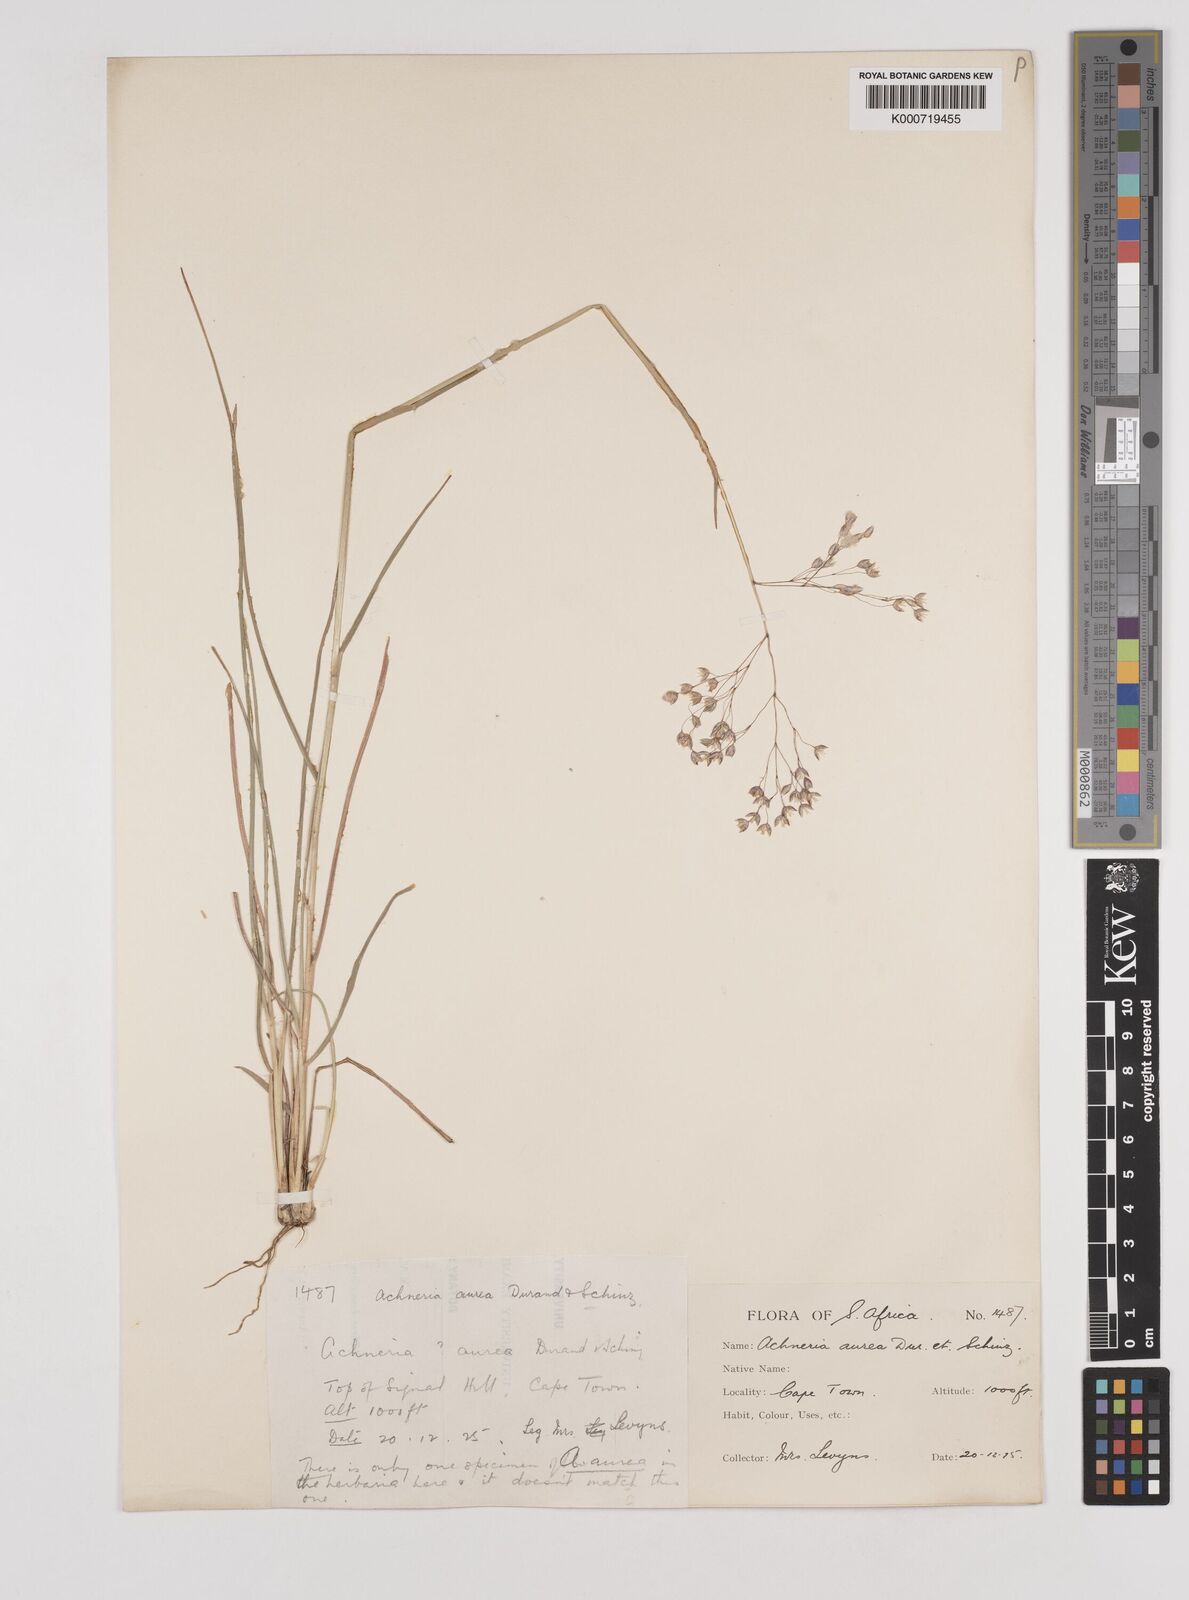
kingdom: Plantae
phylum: Tracheophyta
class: Liliopsida
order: Poales
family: Poaceae
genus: Pentameris
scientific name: Pentameris aurea
